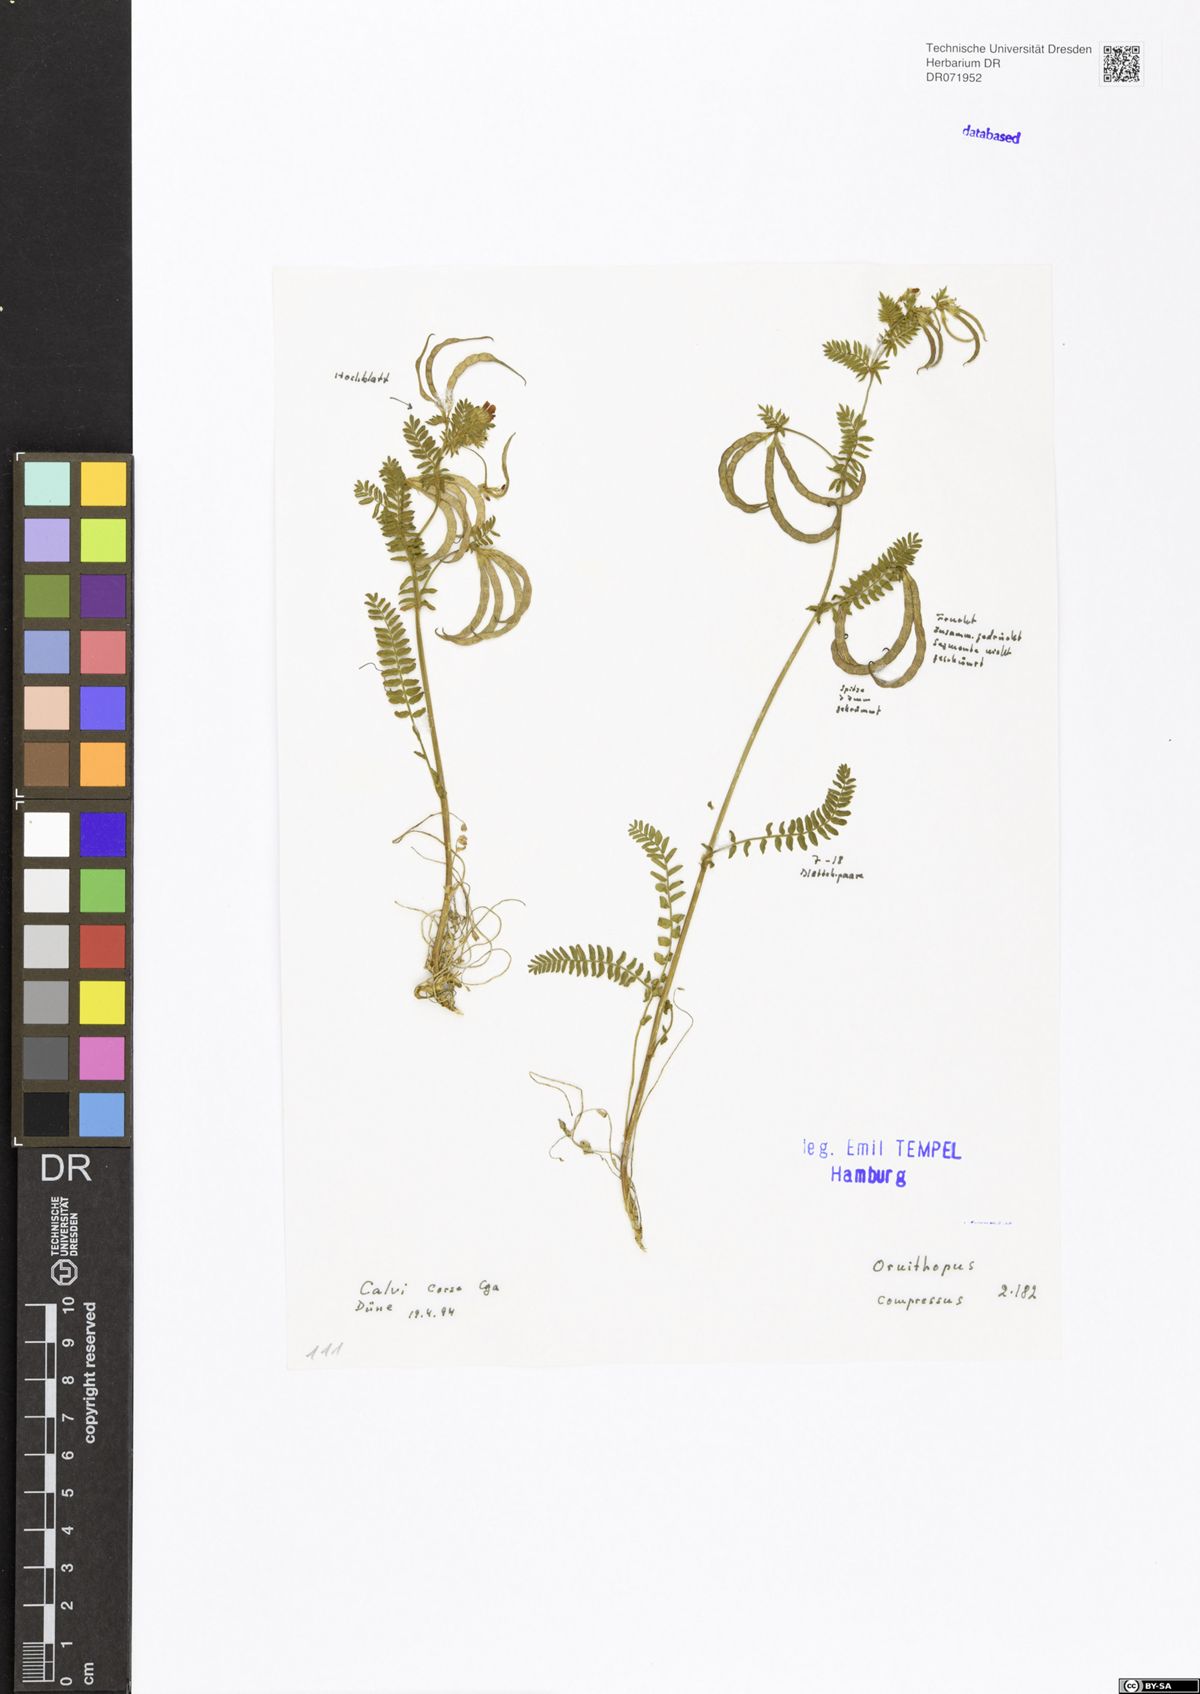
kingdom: Plantae
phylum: Tracheophyta
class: Magnoliopsida
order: Fabales
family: Fabaceae
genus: Ornithopus
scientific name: Ornithopus compressus
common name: Yellow serradella
